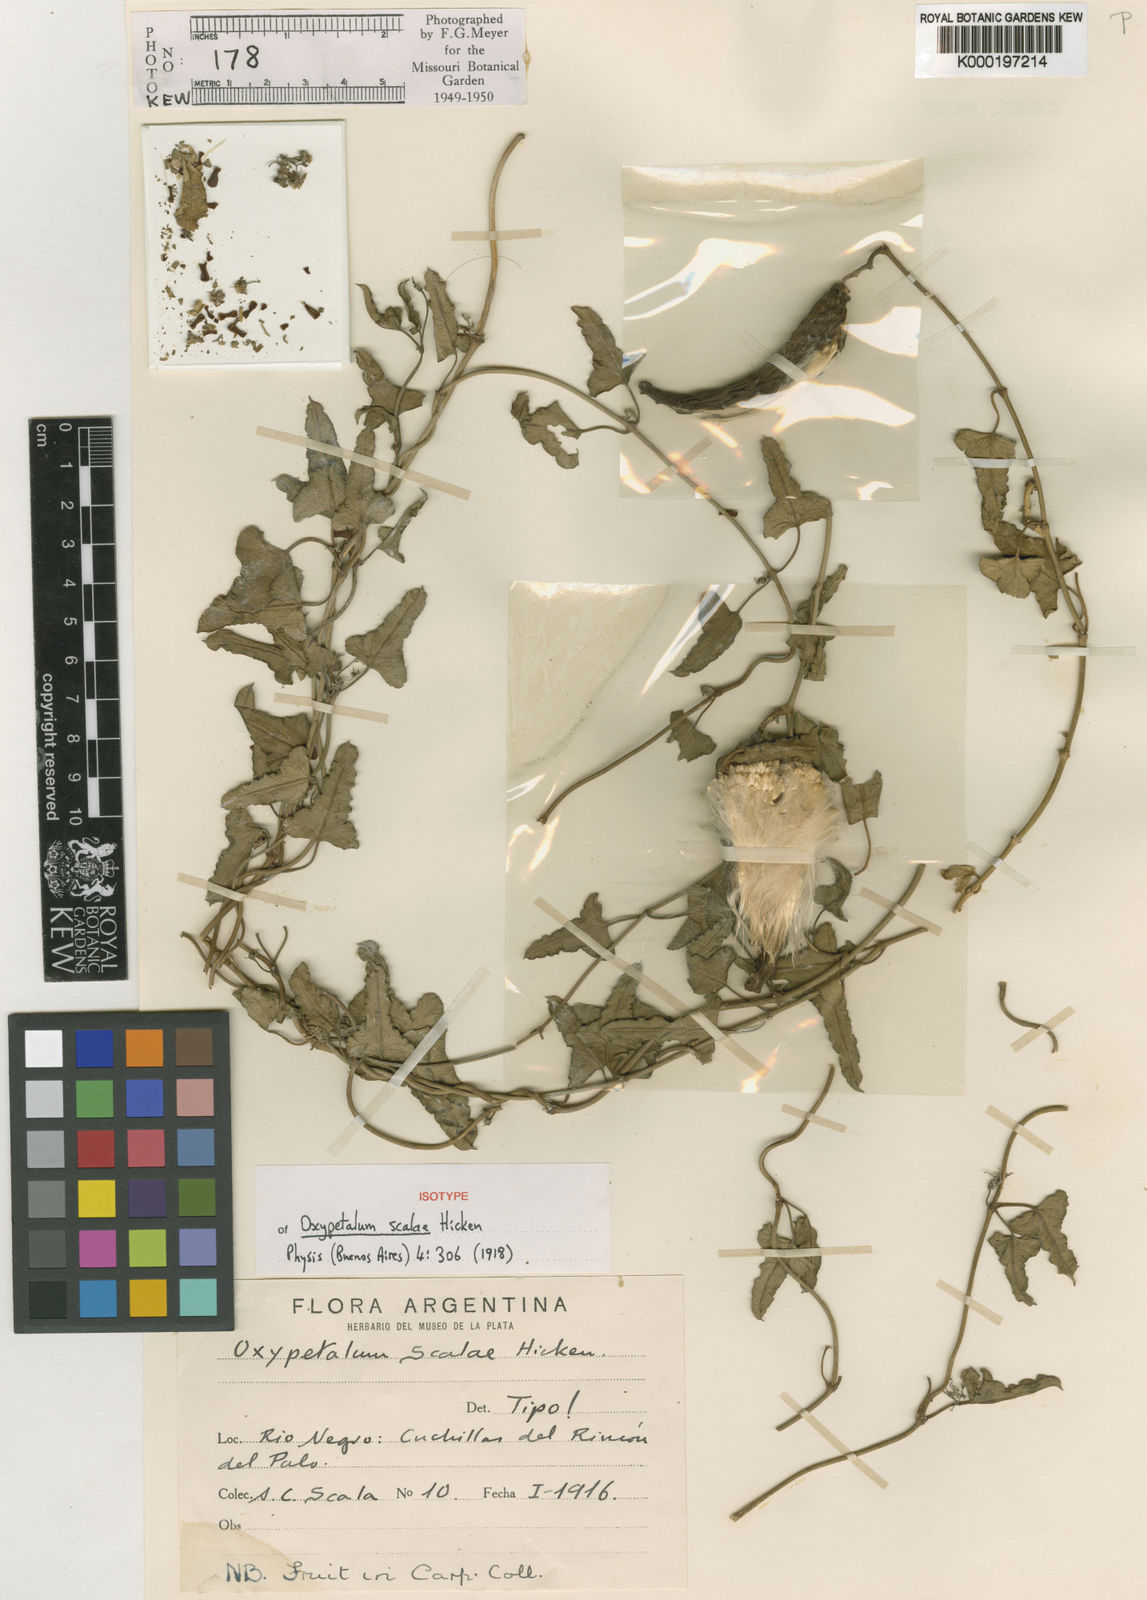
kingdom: Plantae
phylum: Tracheophyta
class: Magnoliopsida
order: Gentianales
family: Apocynaceae
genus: Araujia
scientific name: Araujia scalae
